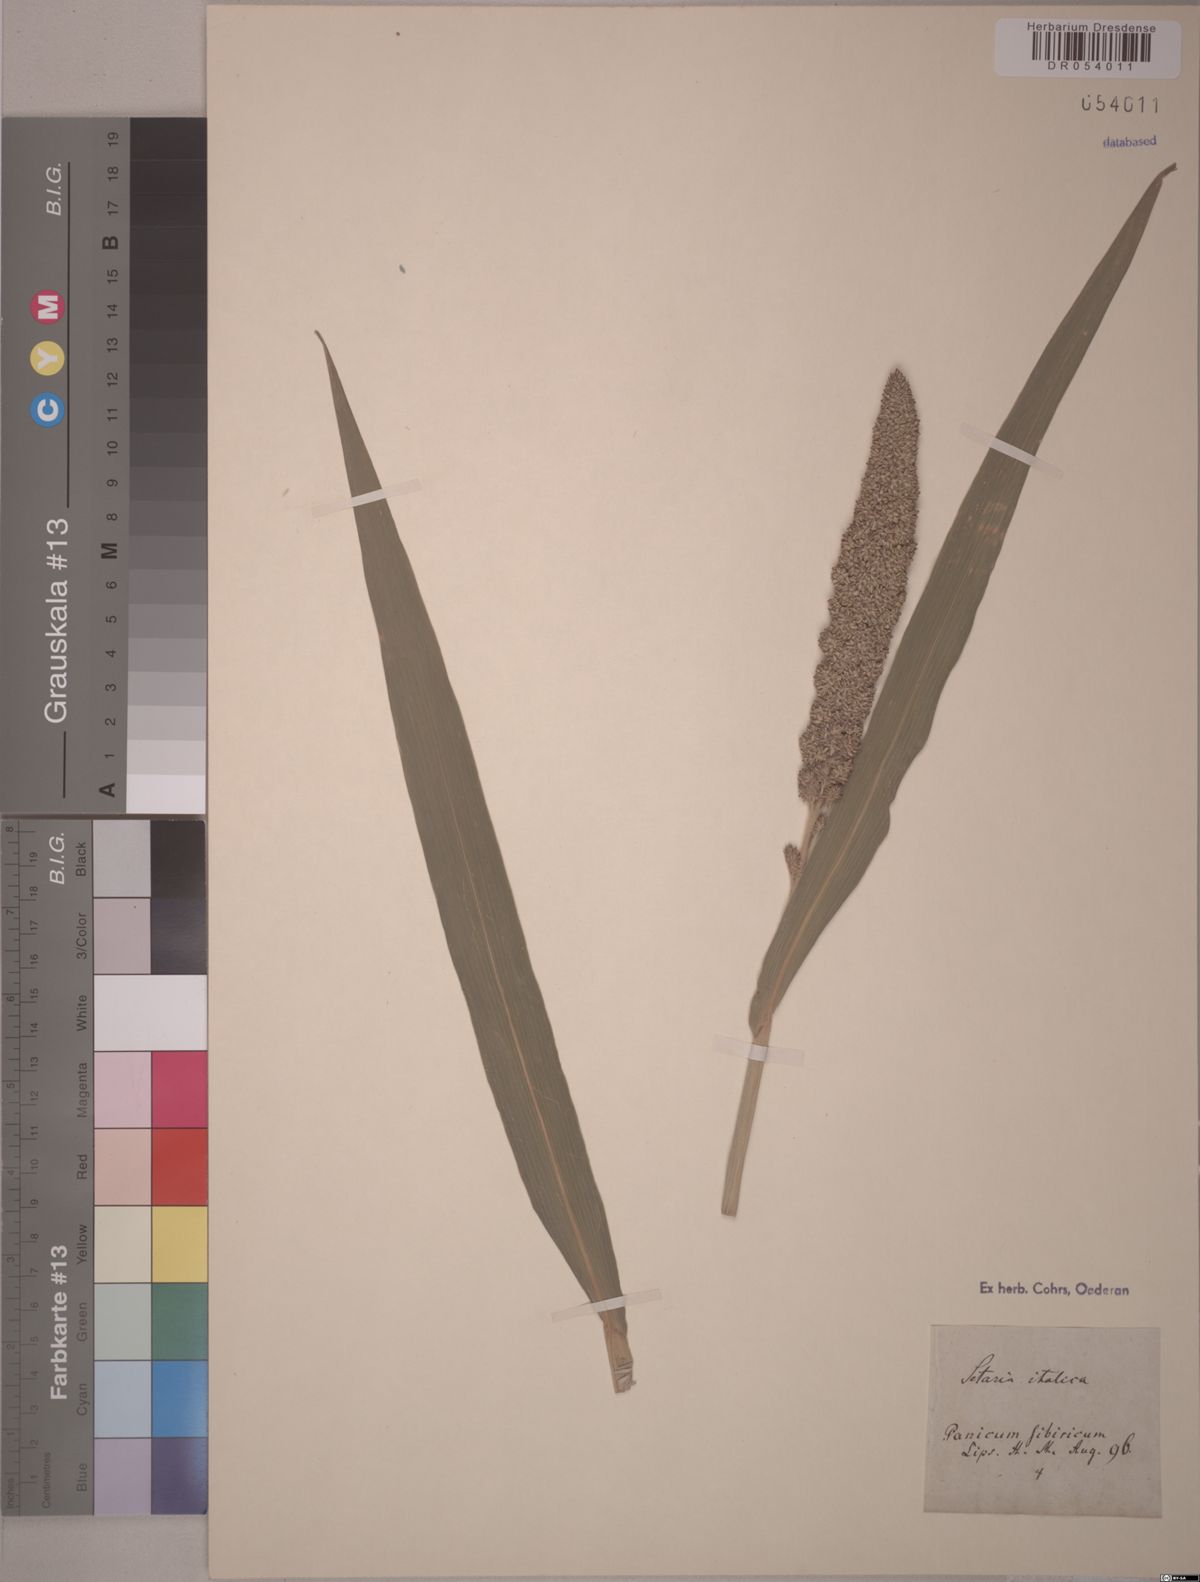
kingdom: Plantae
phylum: Tracheophyta
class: Liliopsida
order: Poales
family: Poaceae
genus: Setaria
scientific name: Setaria italica
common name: Foxtail bristle-grass
